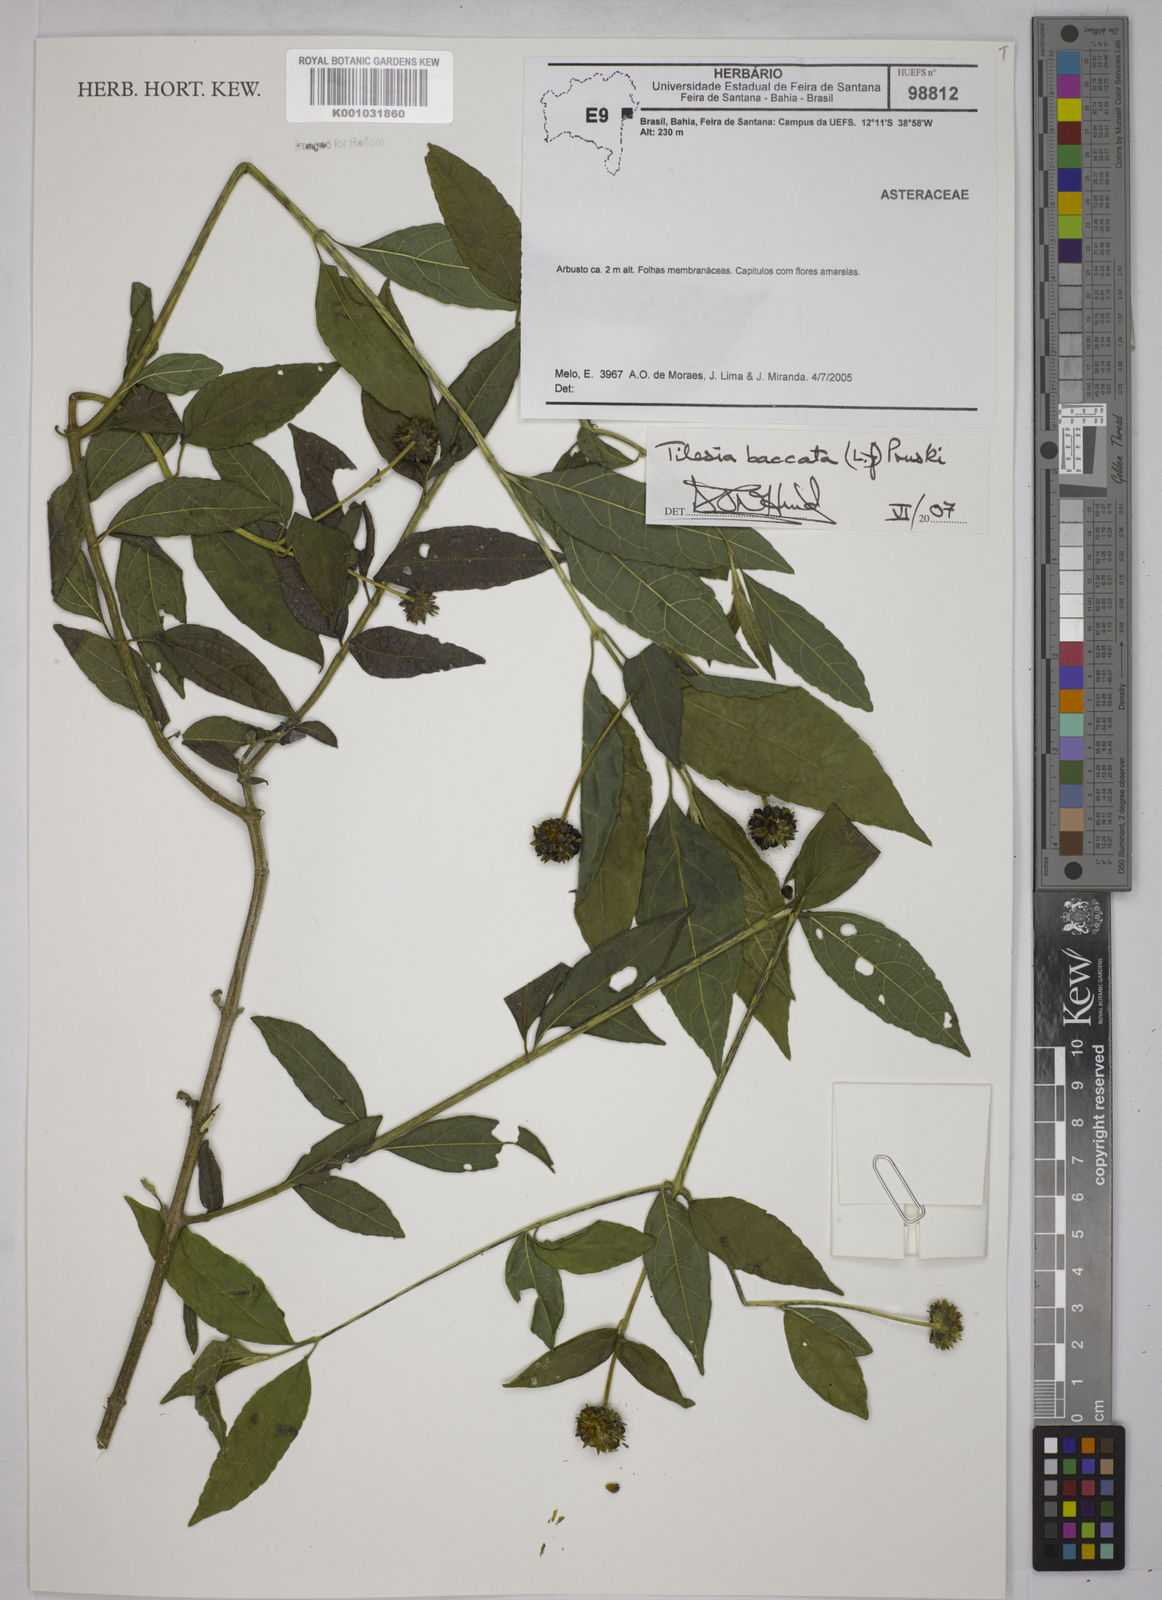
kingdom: Plantae
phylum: Tracheophyta
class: Magnoliopsida
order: Asterales
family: Asteraceae
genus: Tilesia
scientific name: Tilesia baccata
